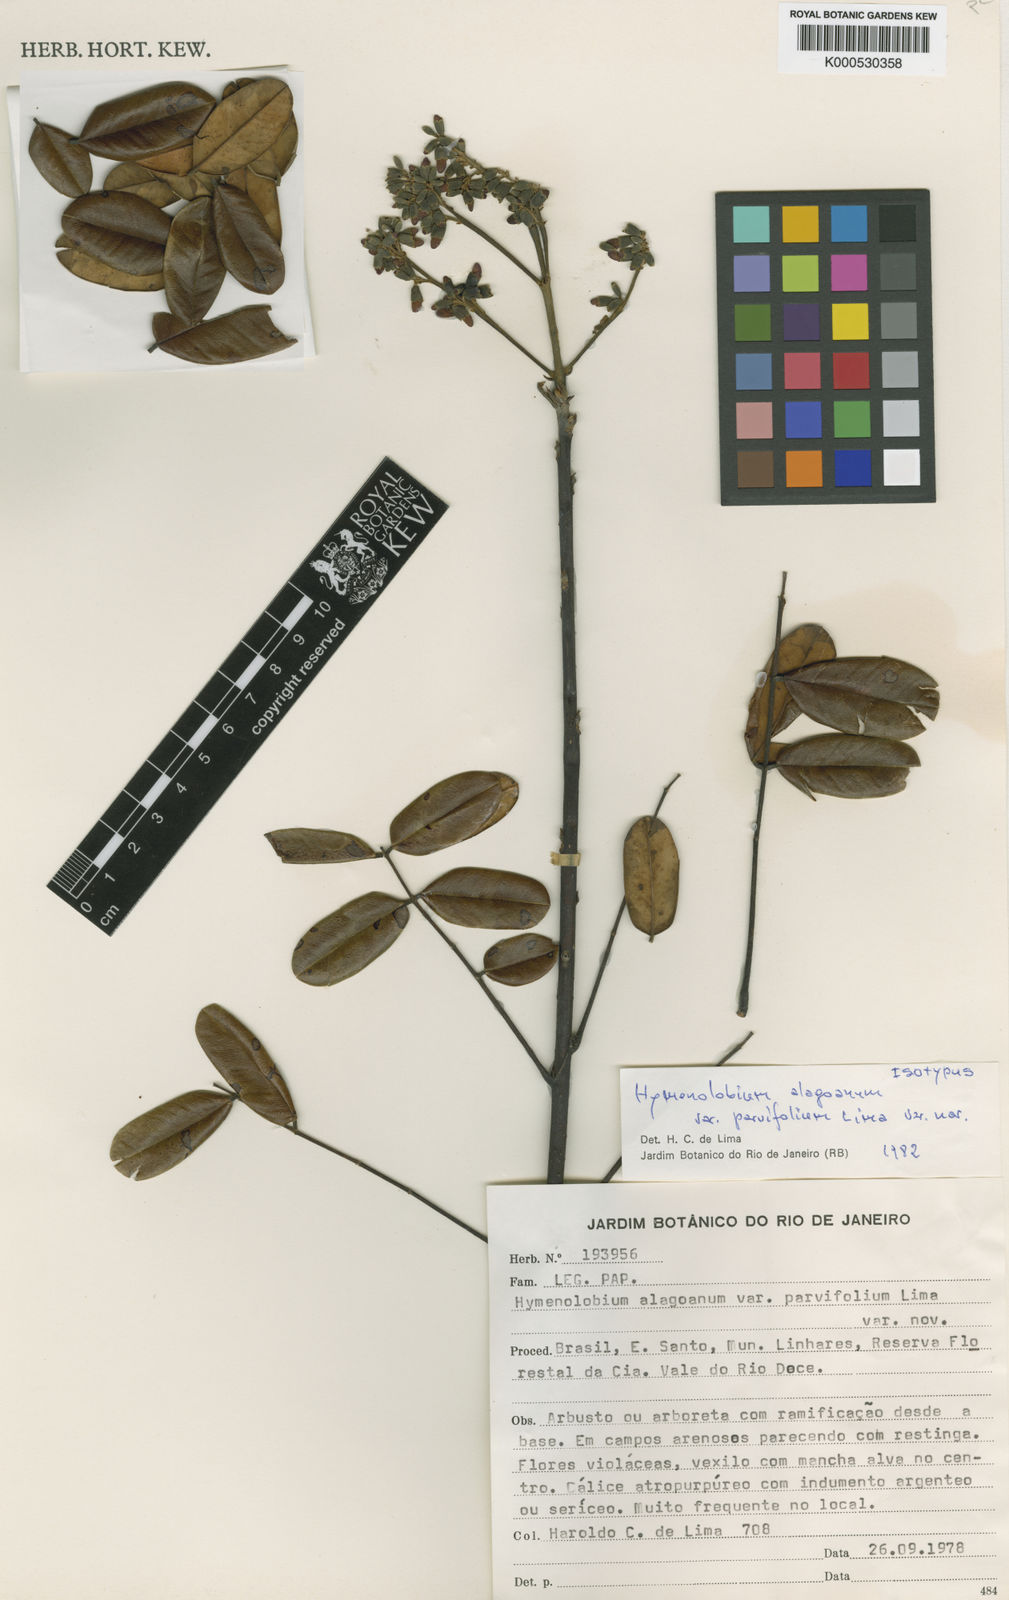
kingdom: Plantae
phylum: Tracheophyta
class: Magnoliopsida
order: Fabales
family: Fabaceae
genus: Hymenolobium
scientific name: Hymenolobium alagoanum
